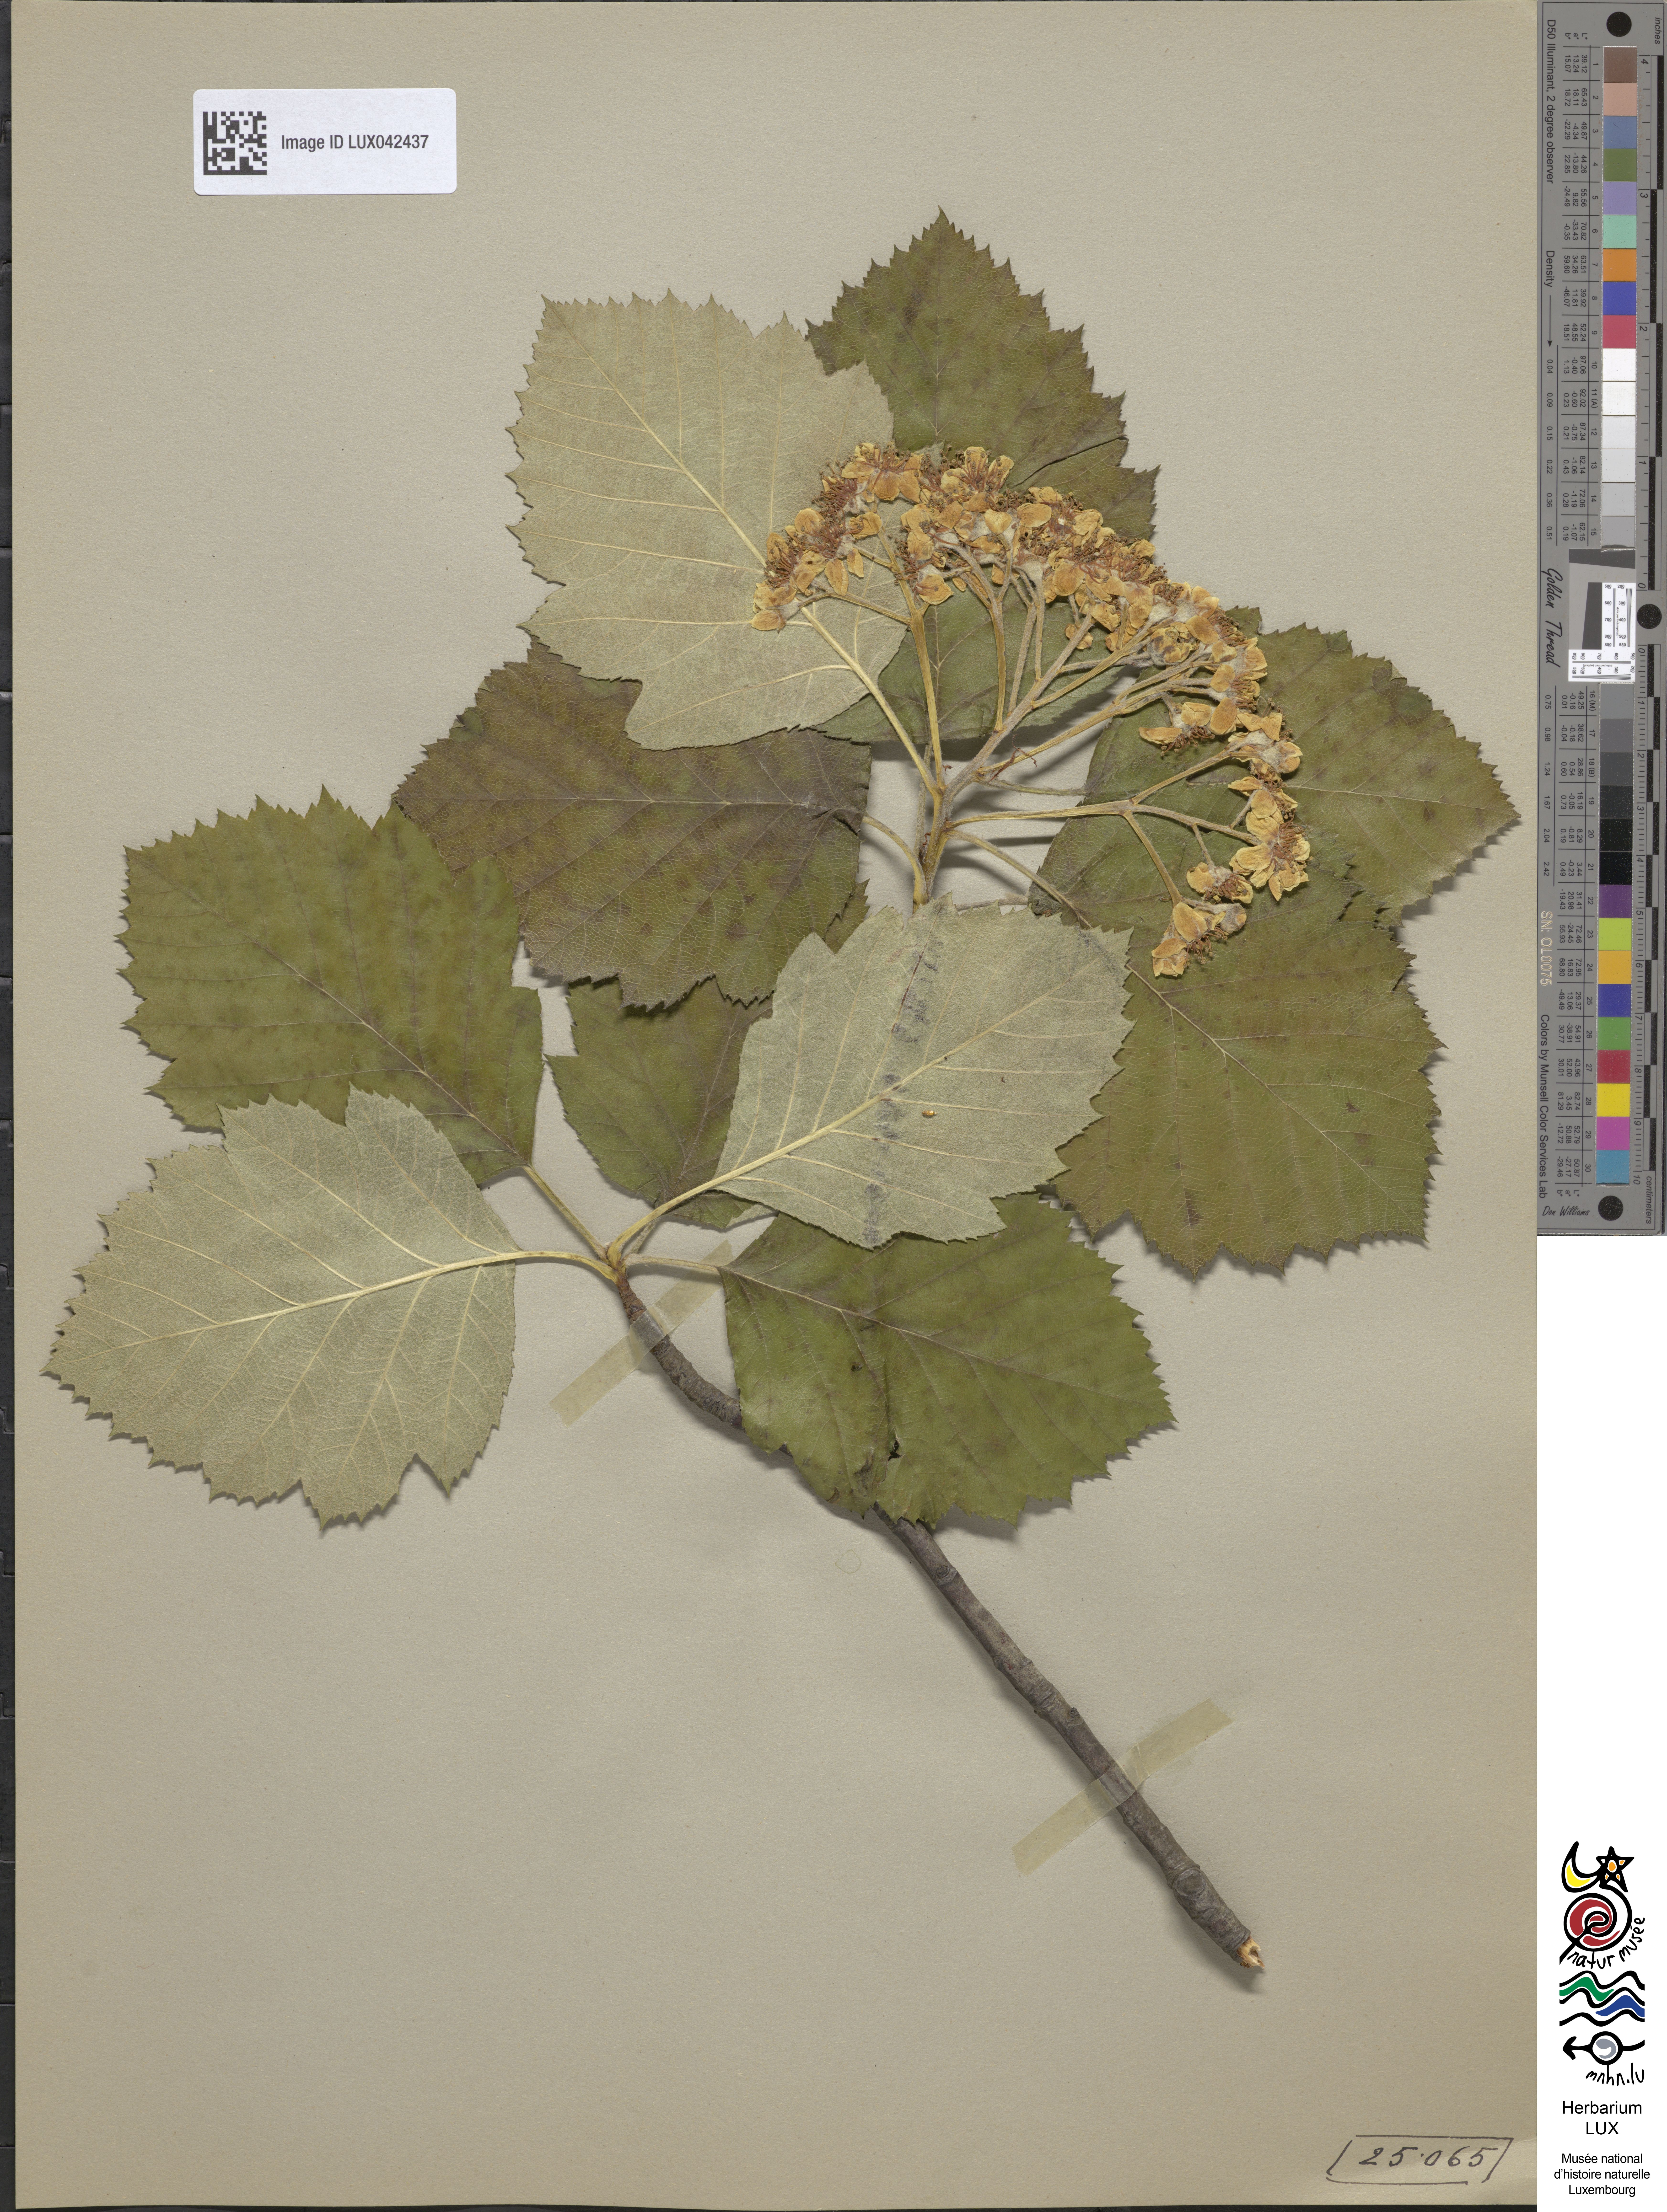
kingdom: Plantae
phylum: Tracheophyta
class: Magnoliopsida
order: Rosales
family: Rosaceae
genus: Karpatiosorbus
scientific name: Karpatiosorbus
